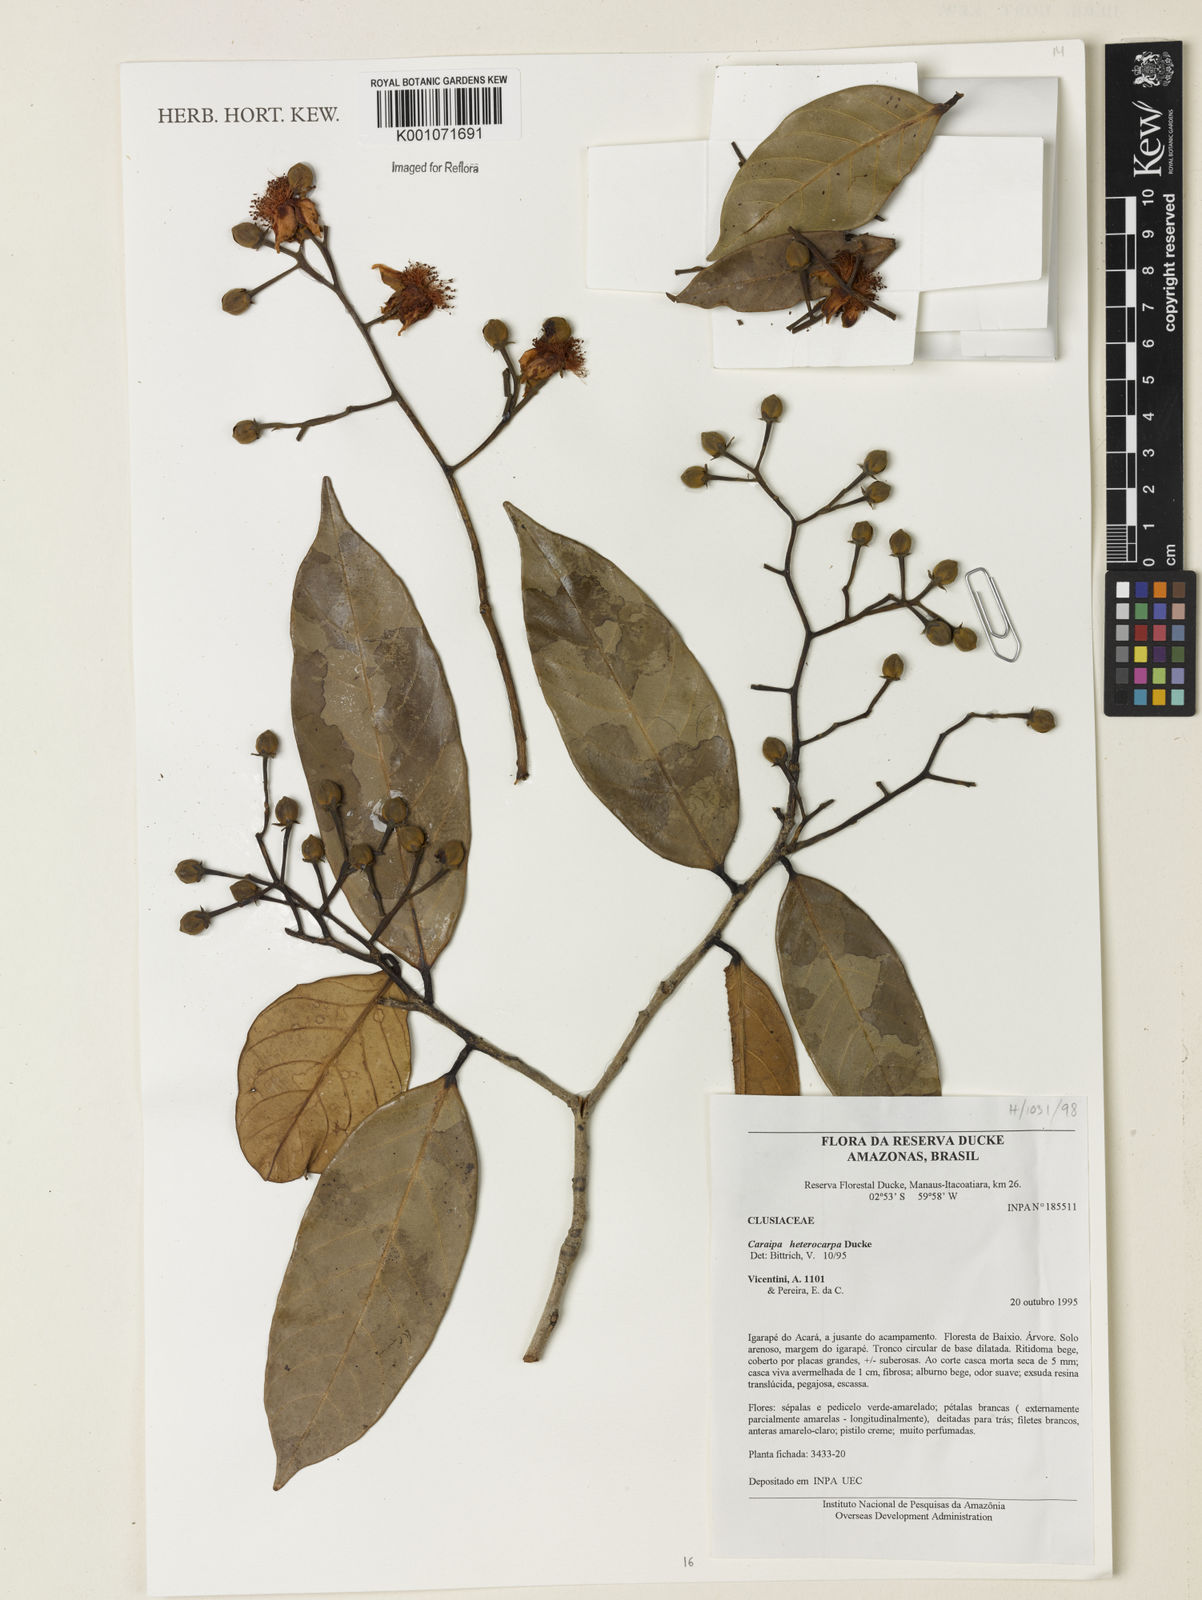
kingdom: Plantae
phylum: Tracheophyta
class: Magnoliopsida
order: Malpighiales
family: Calophyllaceae
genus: Caraipa
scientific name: Caraipa heterocarpa
